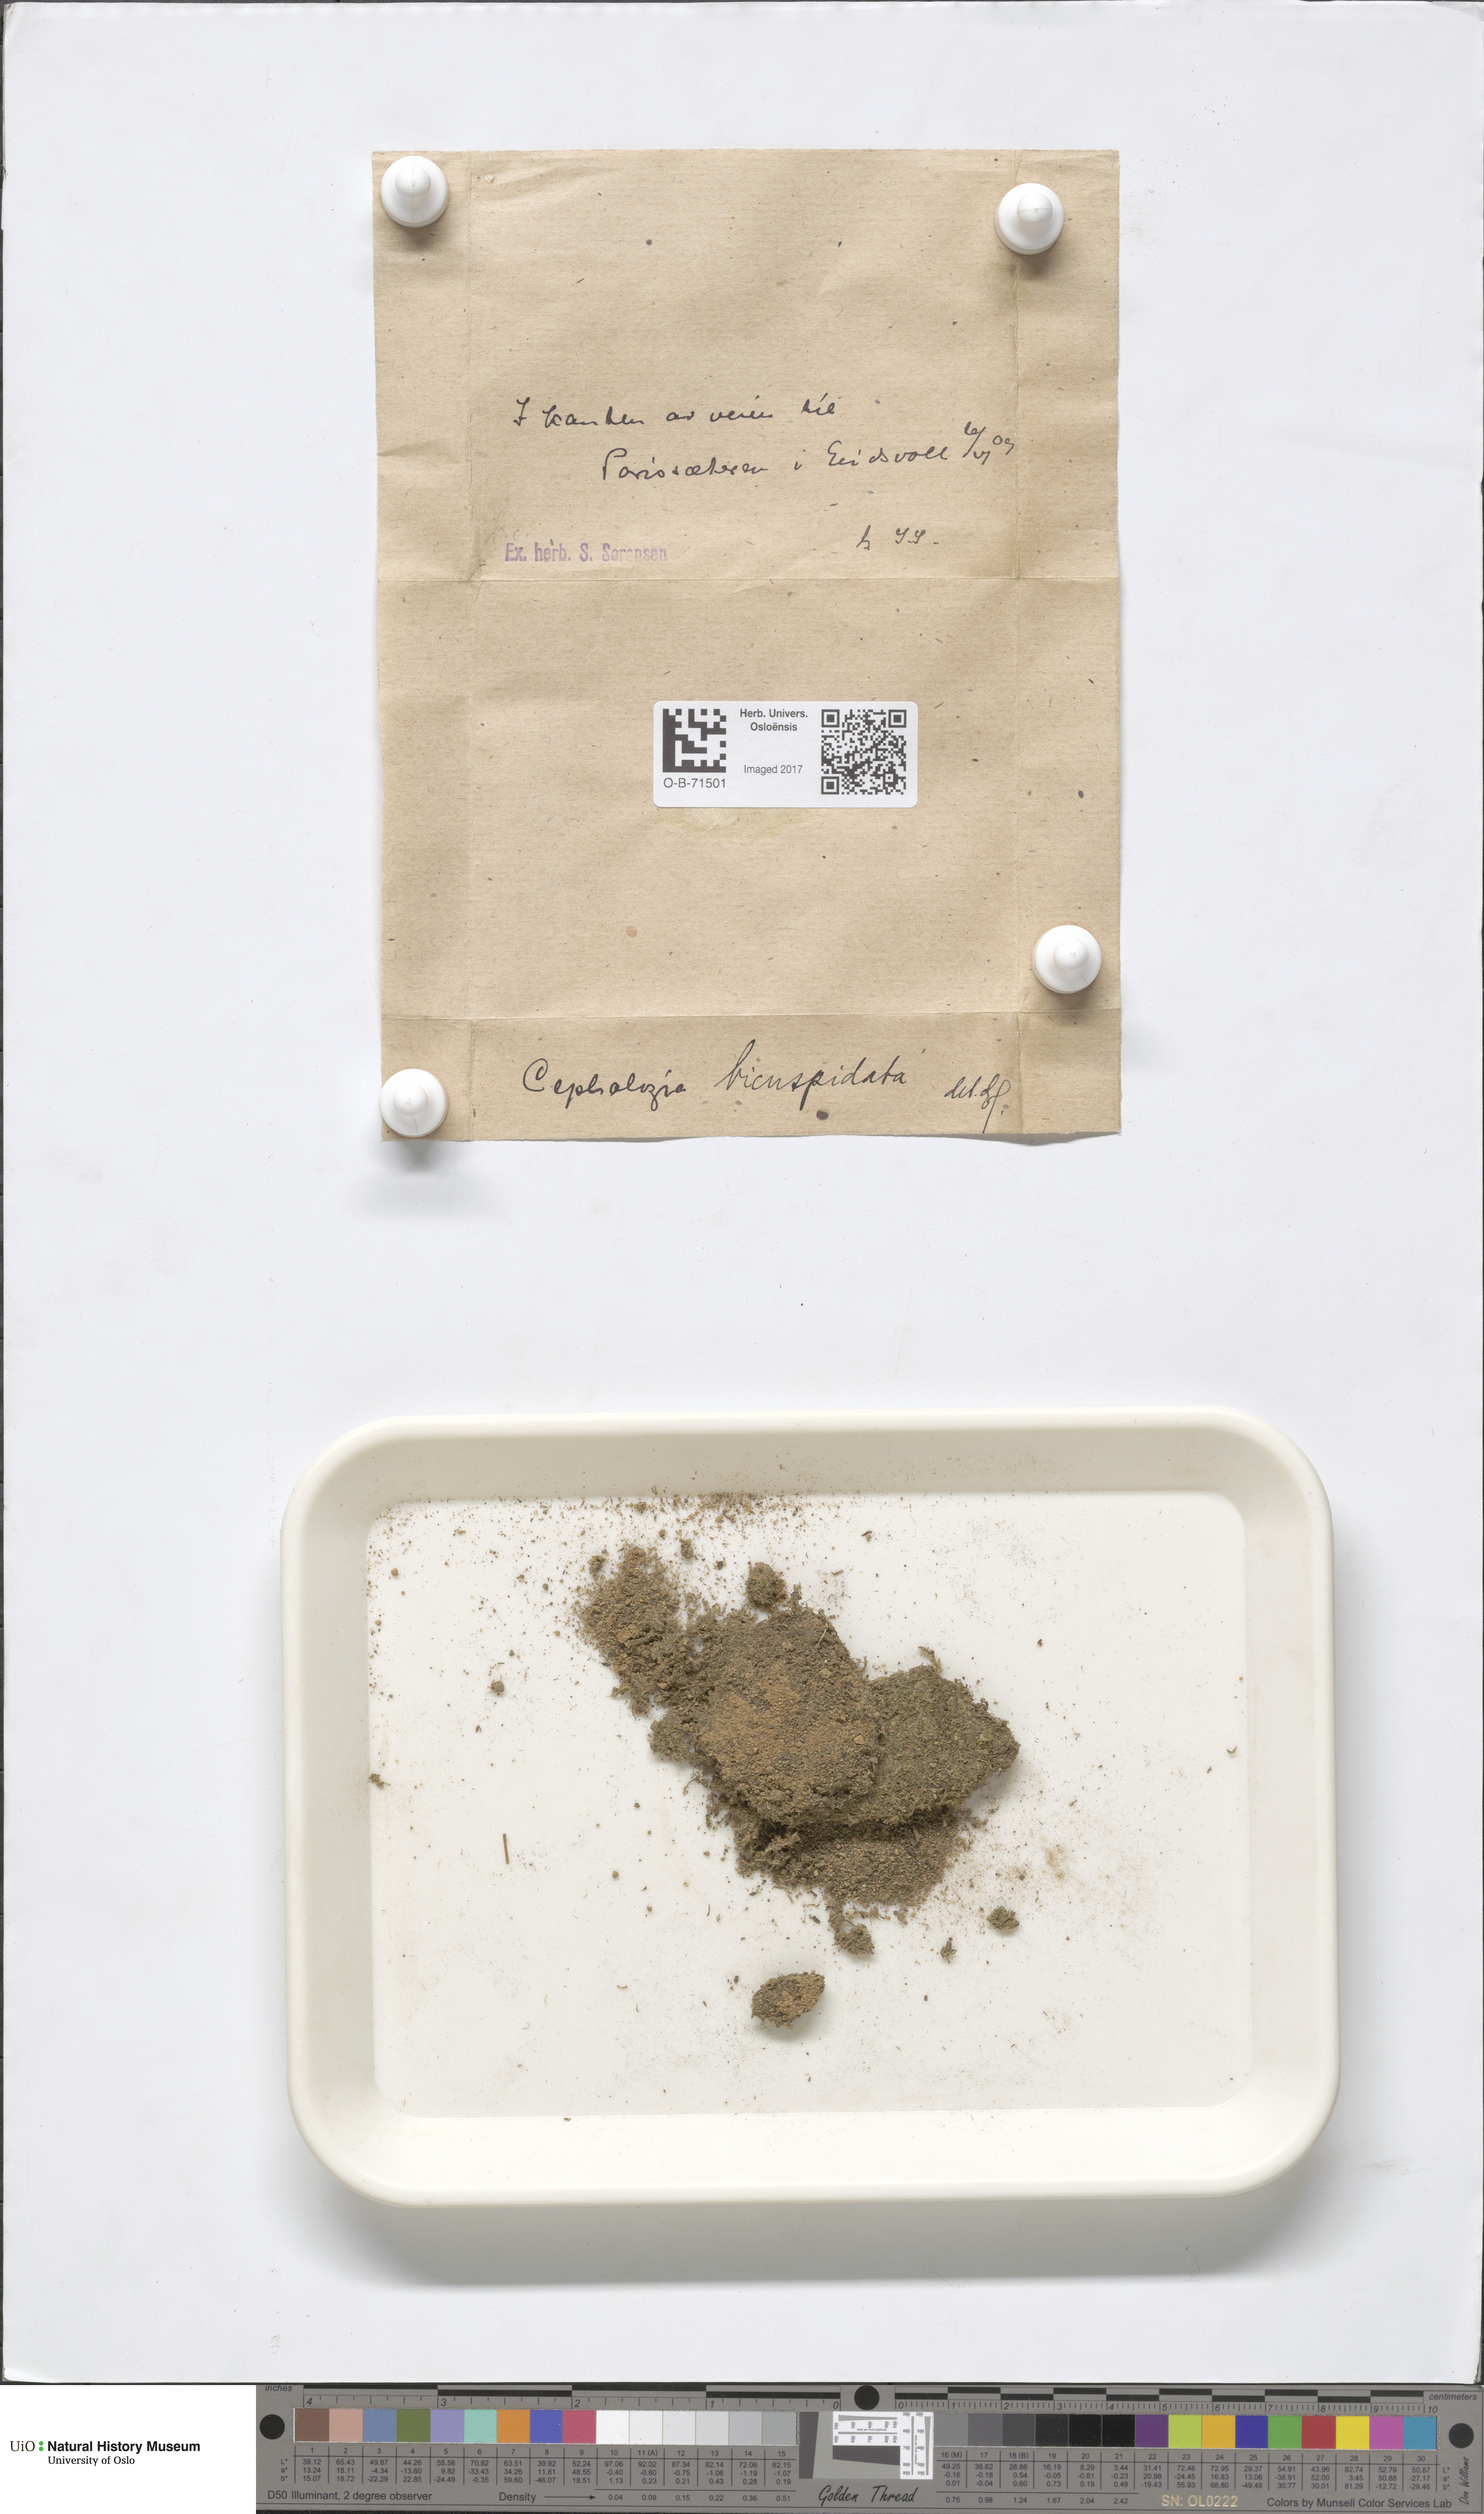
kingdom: Plantae
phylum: Marchantiophyta
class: Jungermanniopsida
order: Jungermanniales
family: Cephaloziaceae
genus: Cephalozia
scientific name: Cephalozia bicuspidata
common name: Two-horned pincerwort
